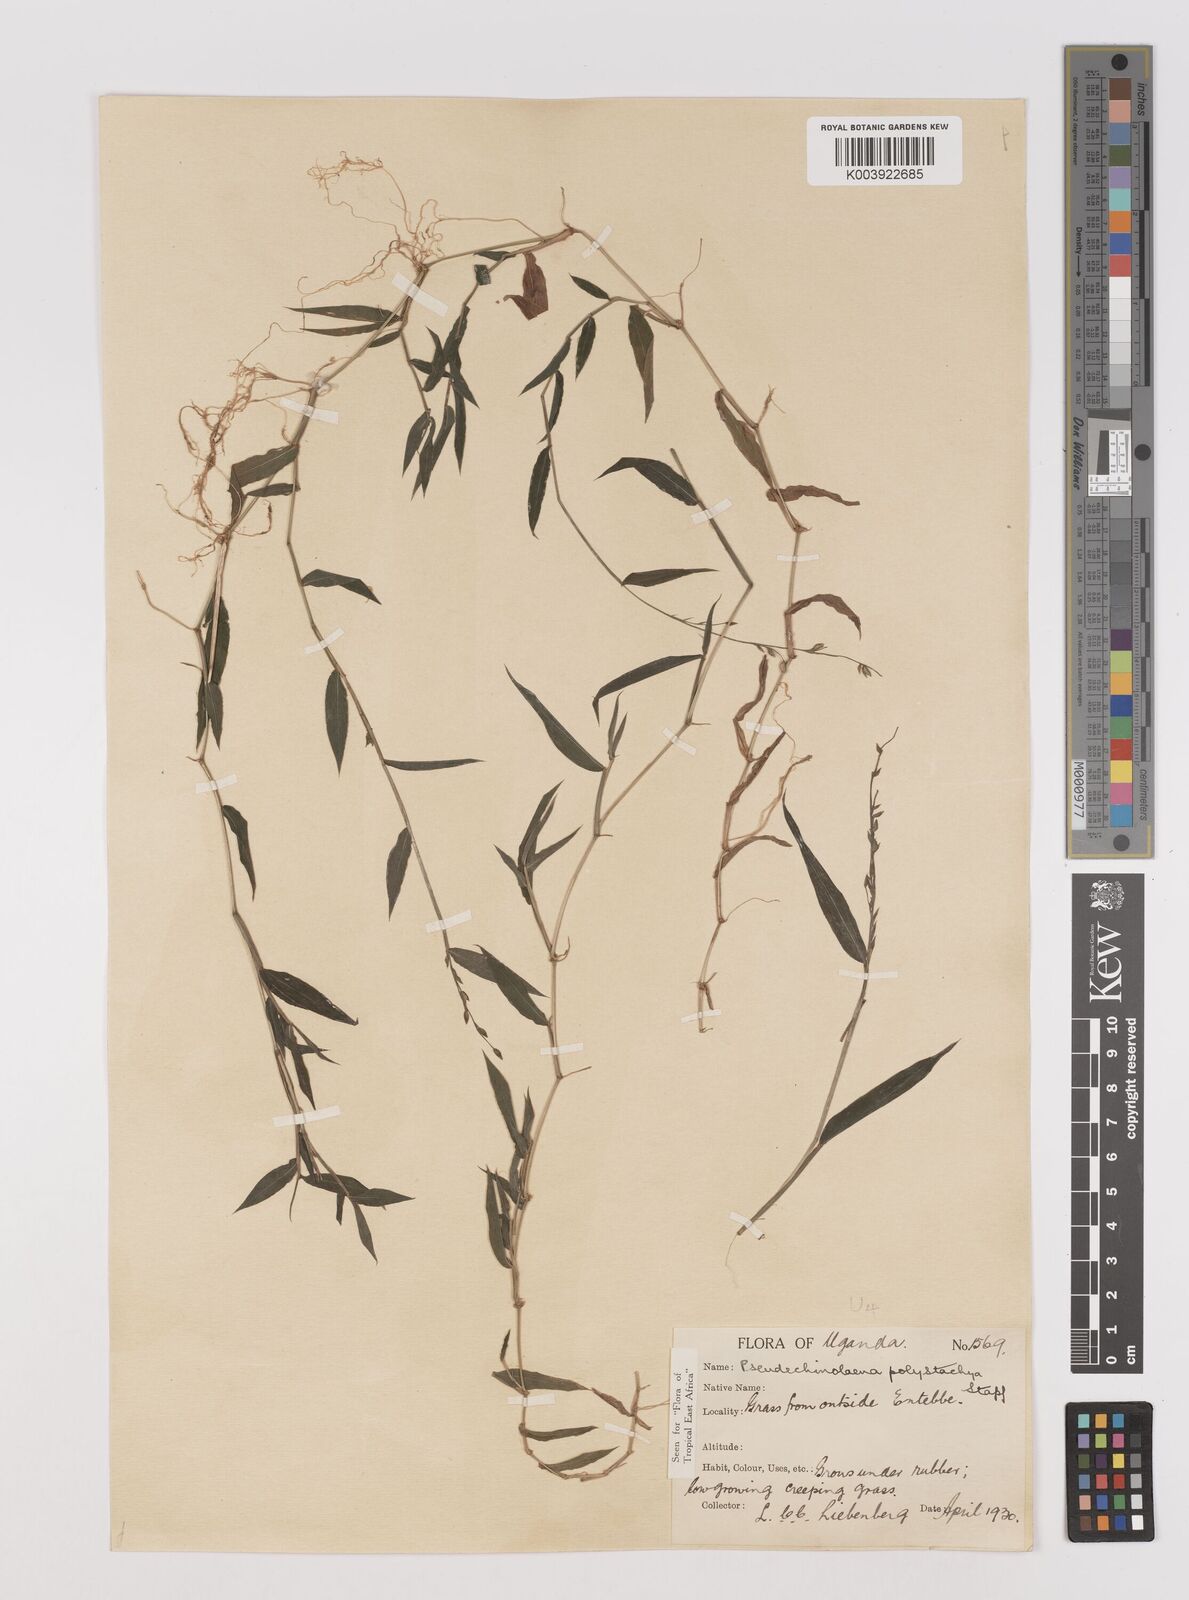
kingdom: Plantae
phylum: Tracheophyta
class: Liliopsida
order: Poales
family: Poaceae
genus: Pseudechinolaena
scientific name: Pseudechinolaena polystachya
